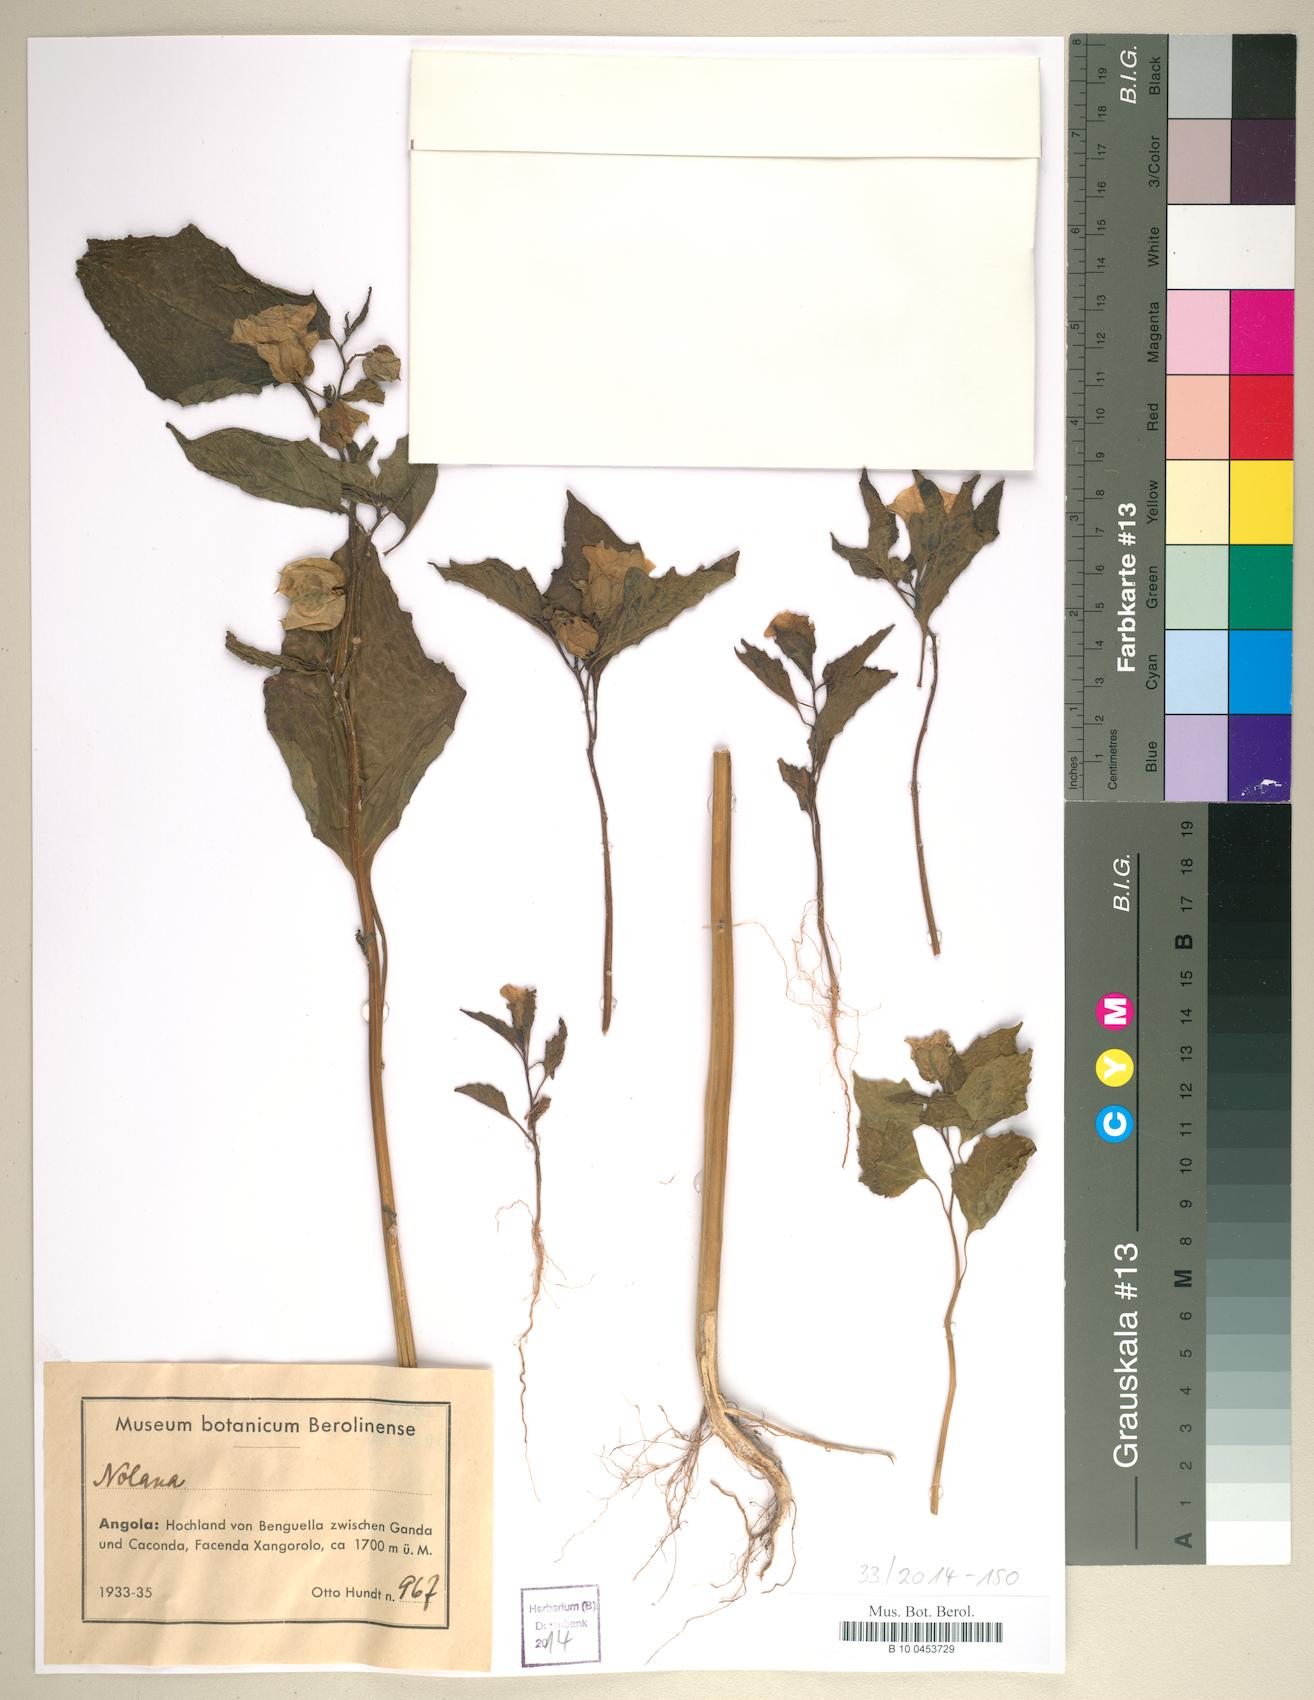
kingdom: Plantae
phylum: Tracheophyta
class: Magnoliopsida
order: Solanales
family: Solanaceae
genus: Nolana
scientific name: Nolana
